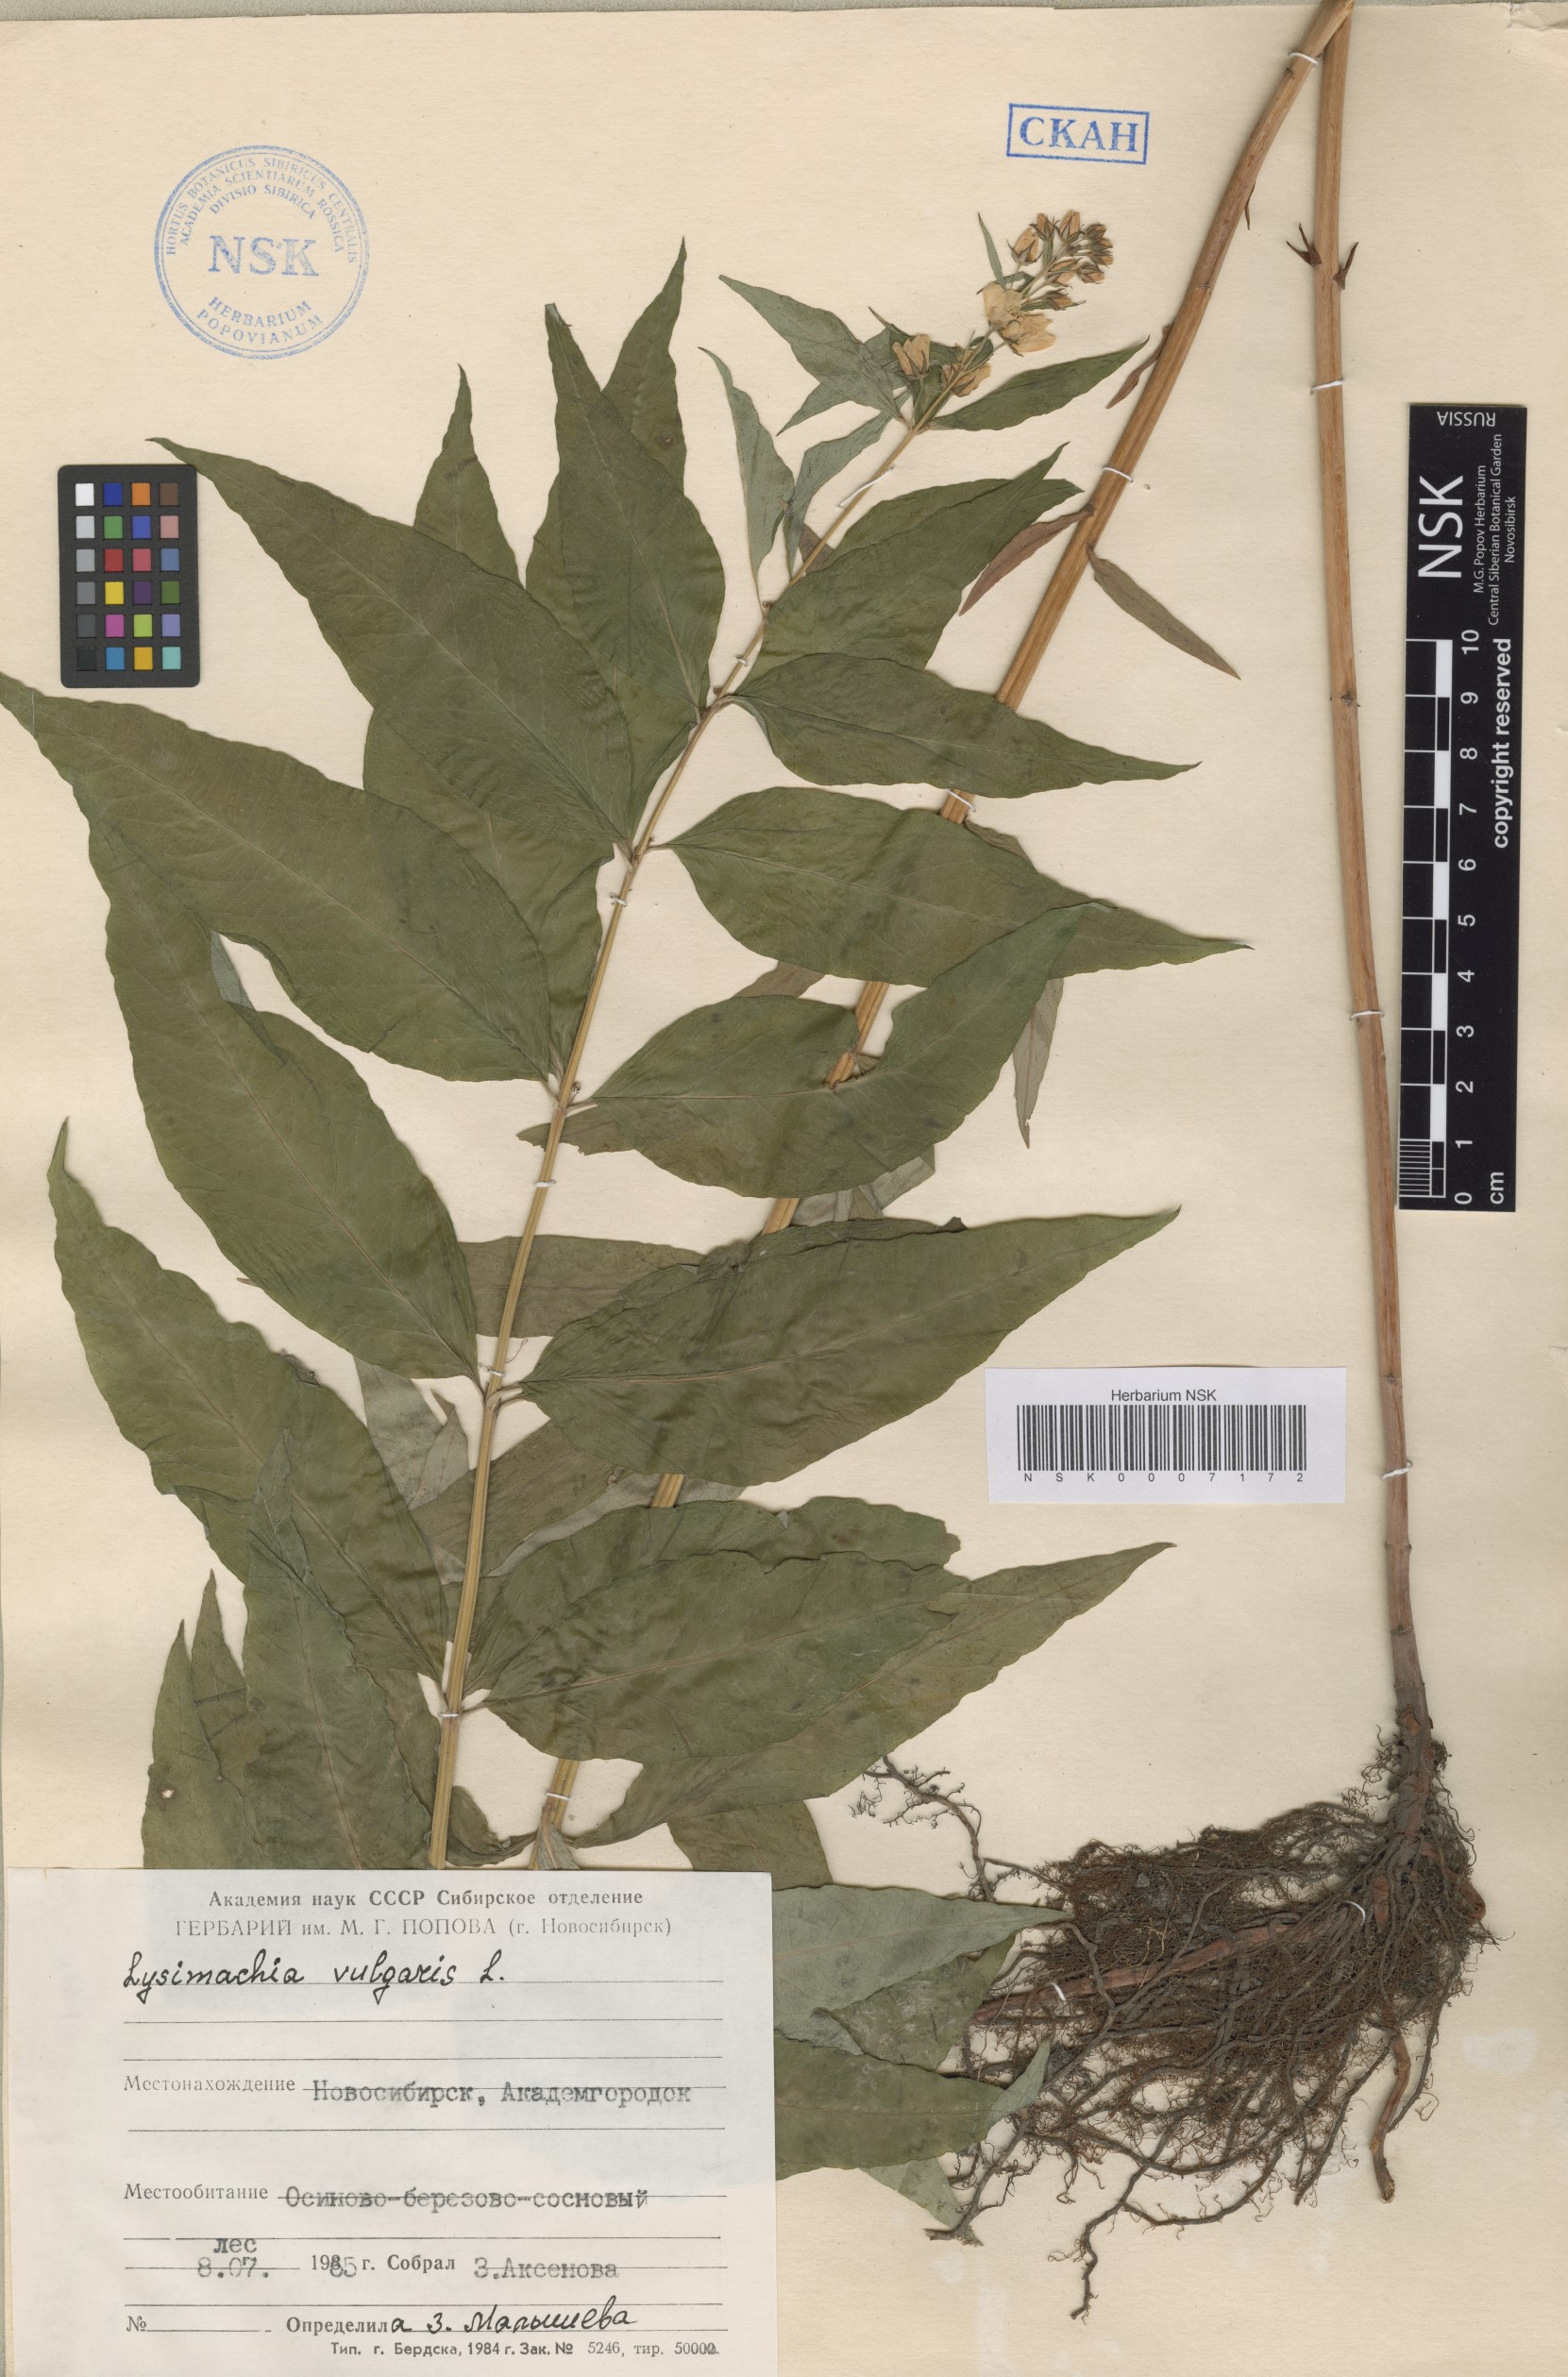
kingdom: Plantae
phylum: Tracheophyta
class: Magnoliopsida
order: Ericales
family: Primulaceae
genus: Lysimachia
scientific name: Lysimachia vulgaris
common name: Yellow loosestrife
